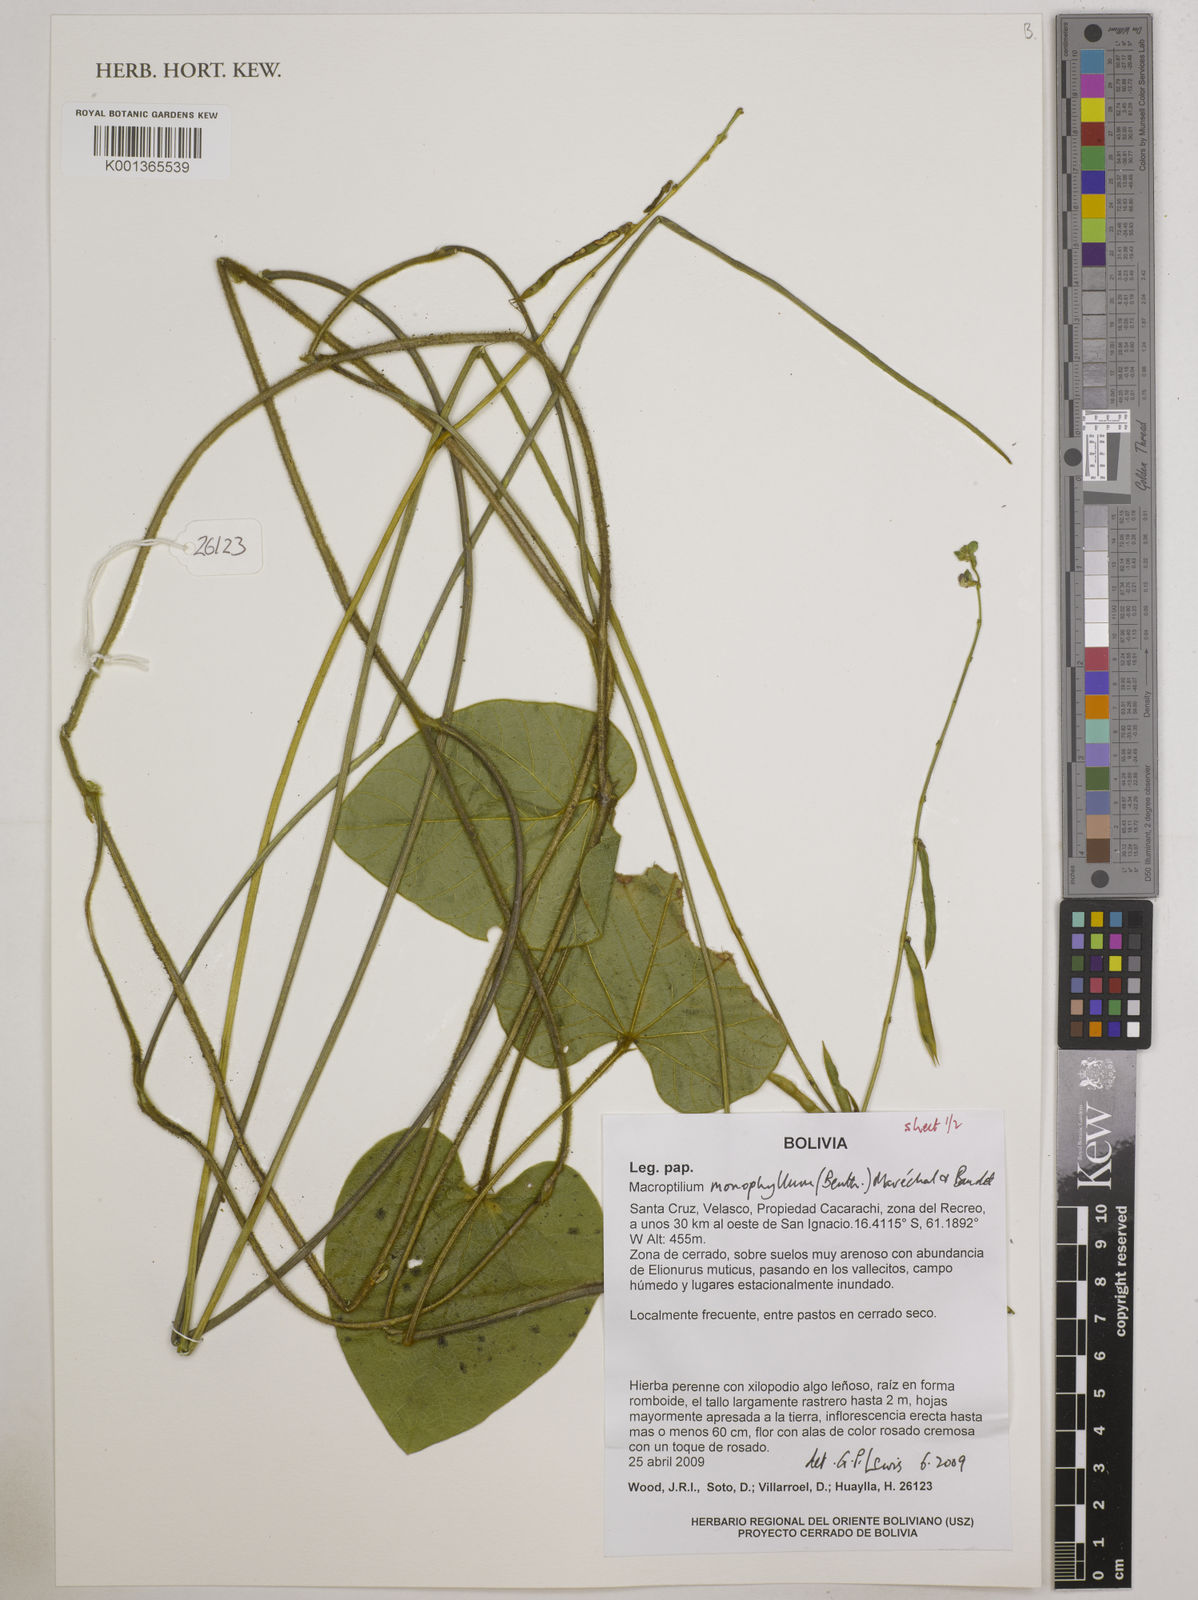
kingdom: Plantae
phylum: Tracheophyta
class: Magnoliopsida
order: Fabales
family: Fabaceae
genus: Macroptilium
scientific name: Macroptilium monophyllum
